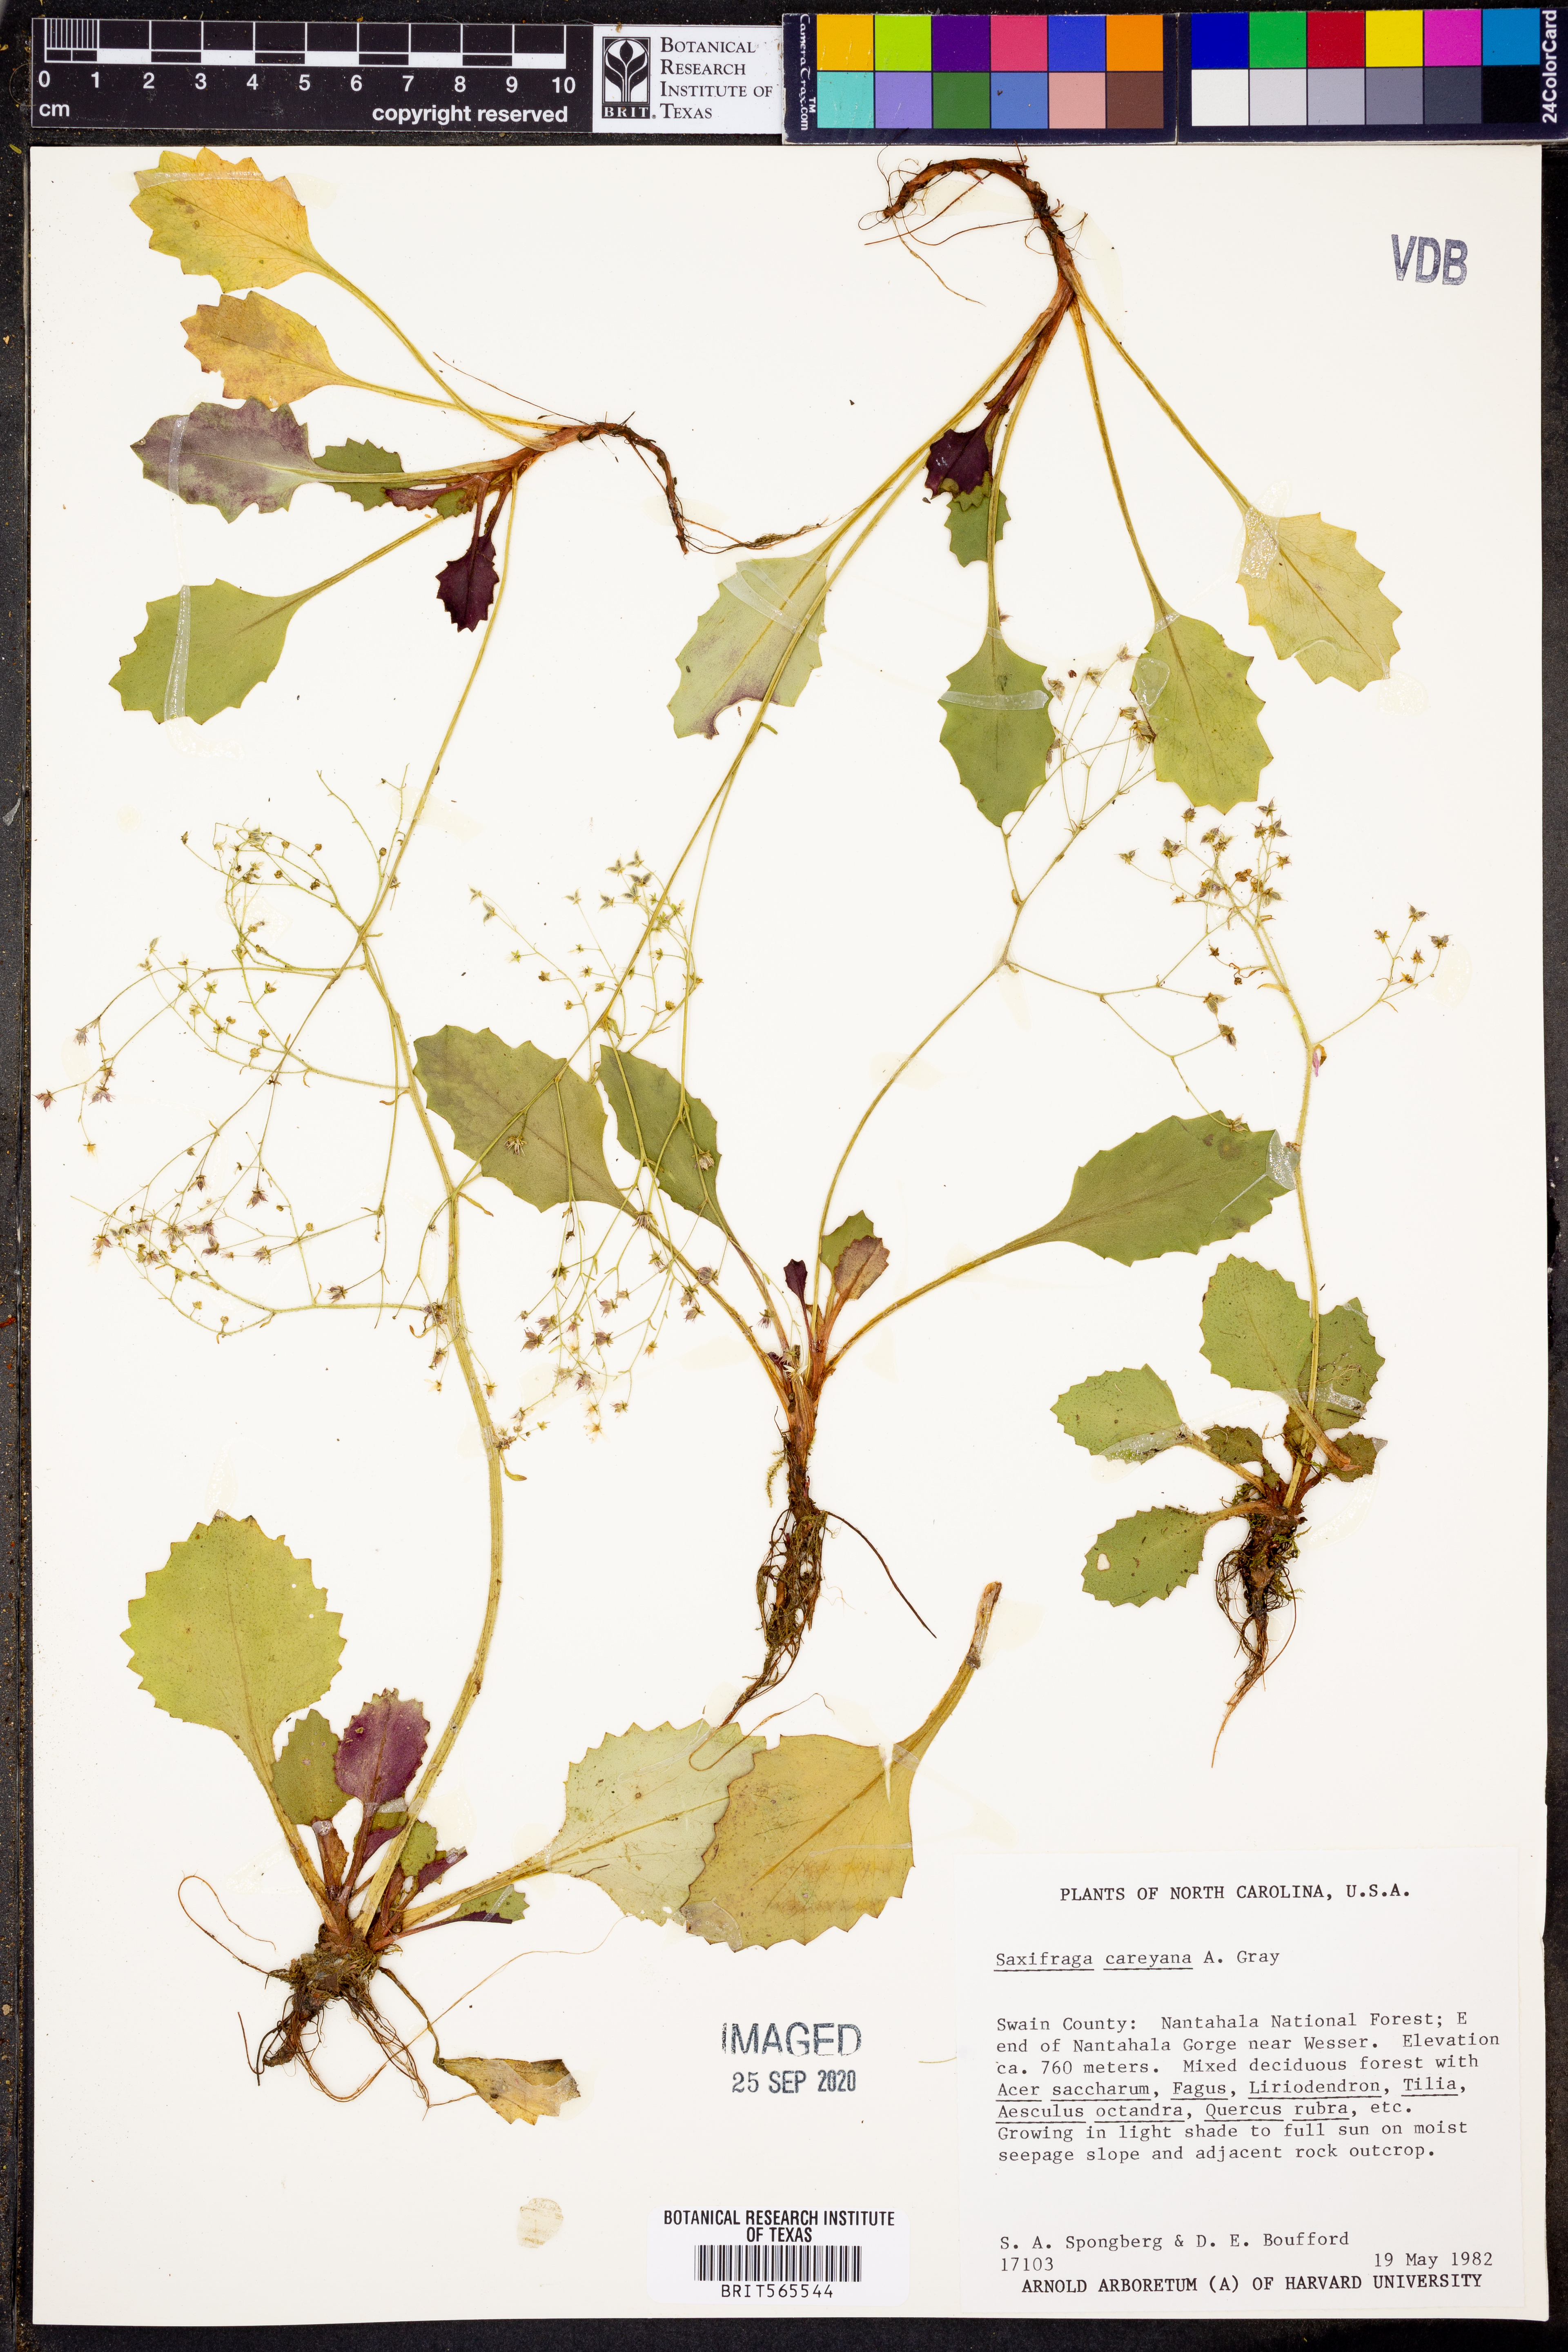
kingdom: Plantae
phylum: Tracheophyta
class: Magnoliopsida
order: Saxifragales
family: Saxifragaceae
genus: Micranthes
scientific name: Micranthes careyana
